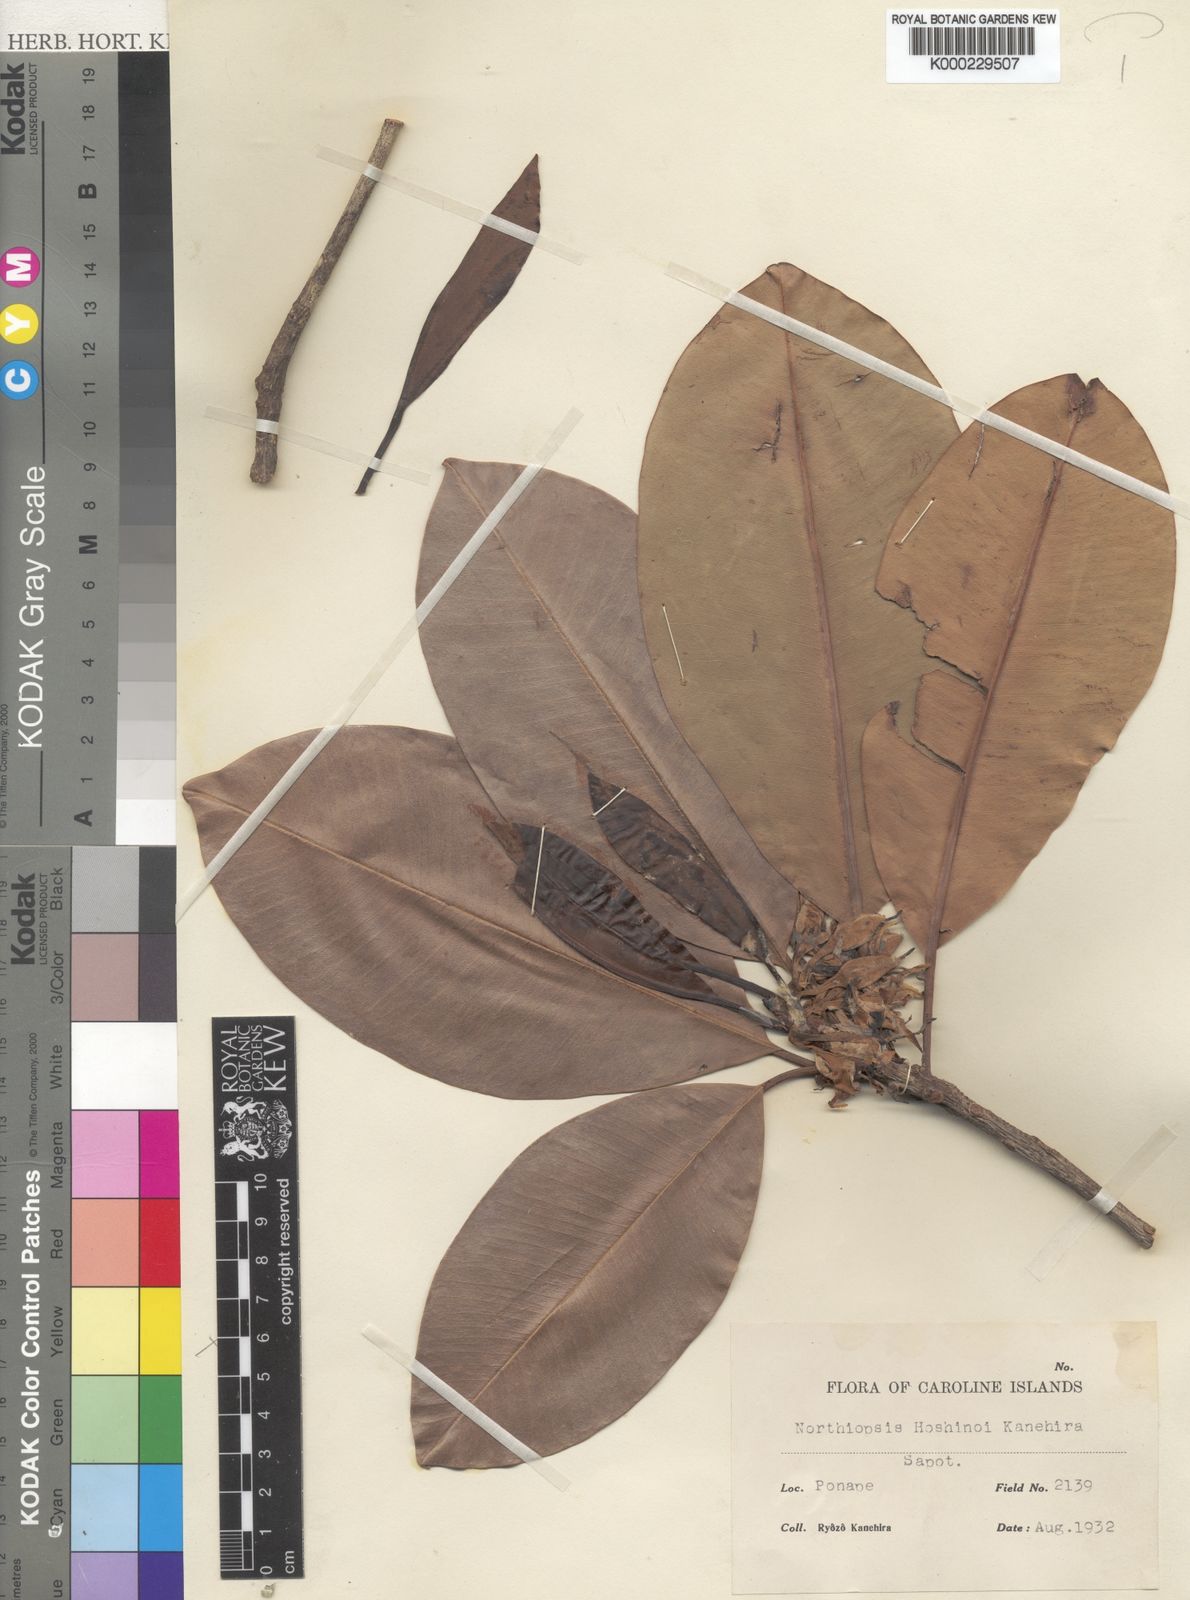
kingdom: Plantae
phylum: Tracheophyta
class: Magnoliopsida
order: Ericales
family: Sapotaceae
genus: Manilkara
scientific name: Manilkara hoshinoi
